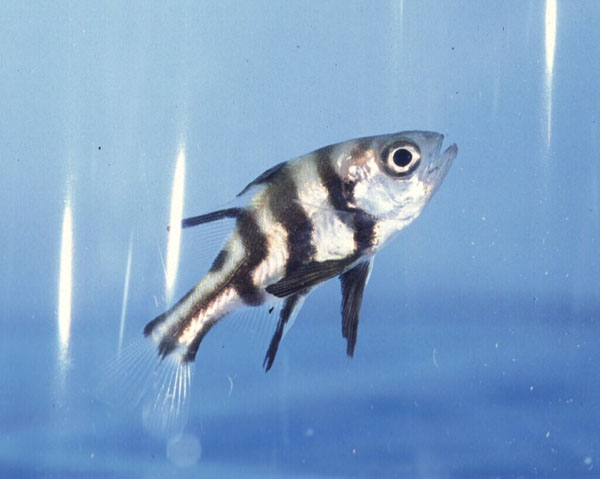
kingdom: Animalia
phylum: Chordata
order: Perciformes
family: Dinopercidae
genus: Dinoperca
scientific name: Dinoperca petersi
